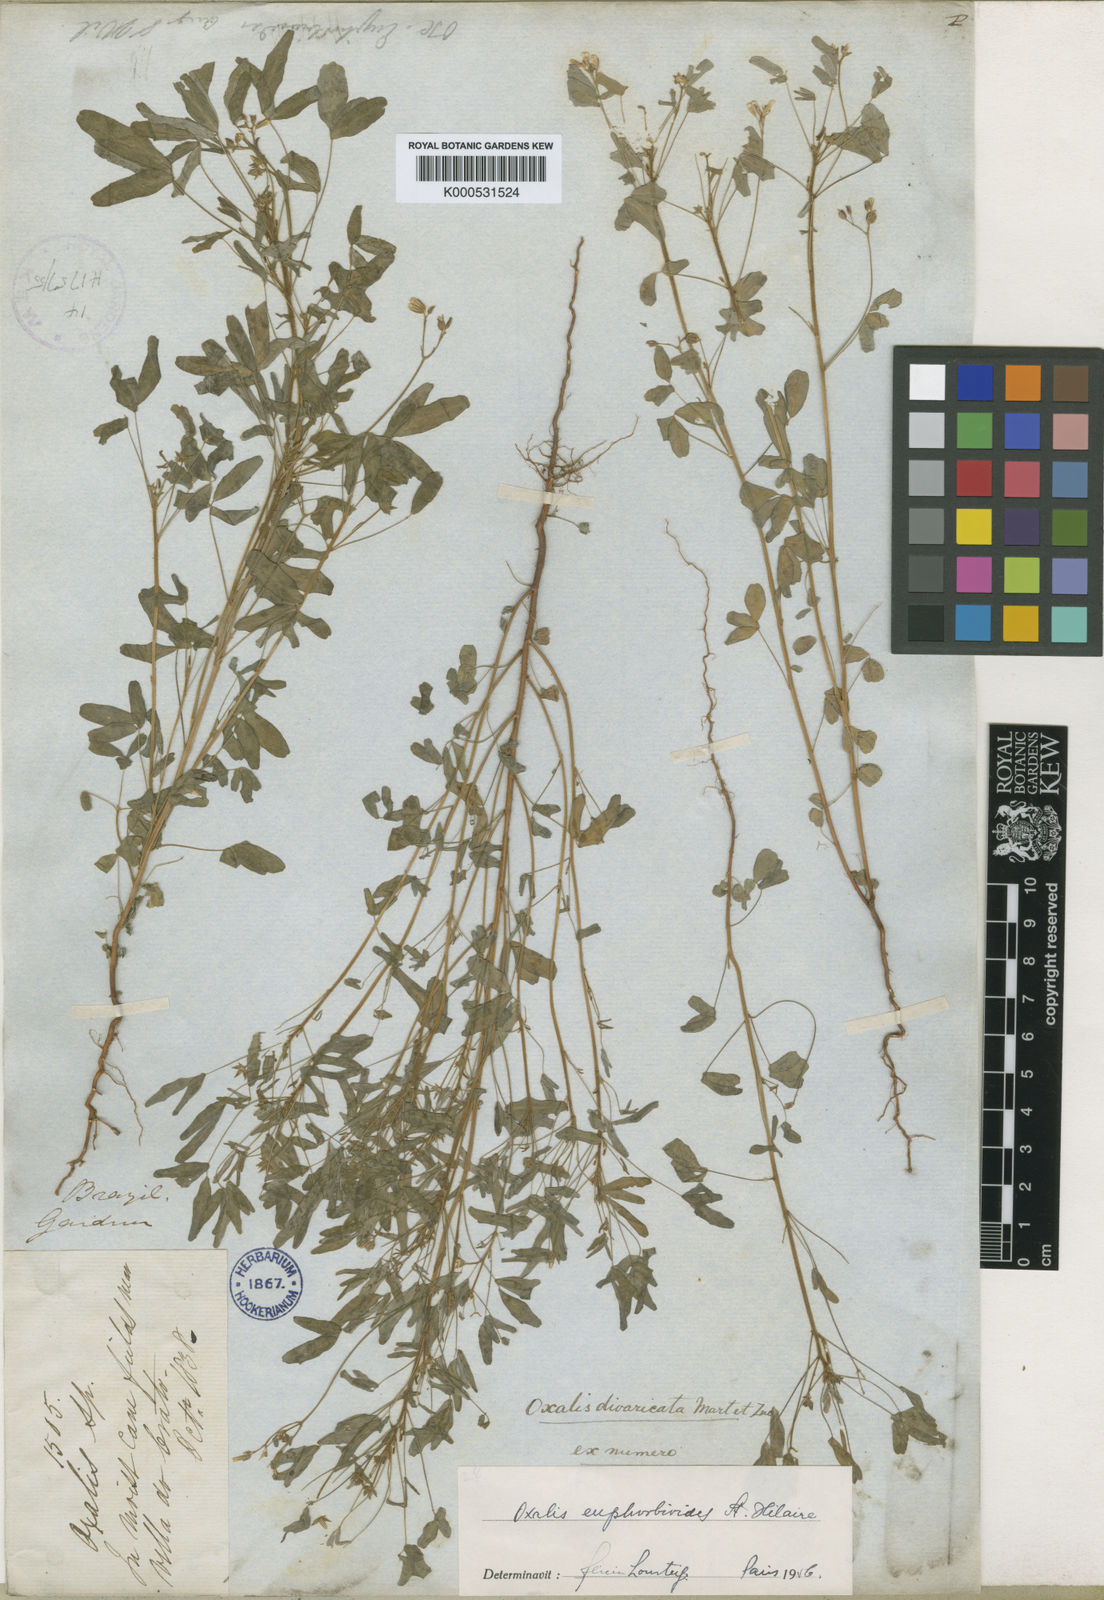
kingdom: Plantae
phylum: Tracheophyta
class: Magnoliopsida
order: Oxalidales
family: Oxalidaceae
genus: Oxalis
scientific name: Oxalis divaricata
